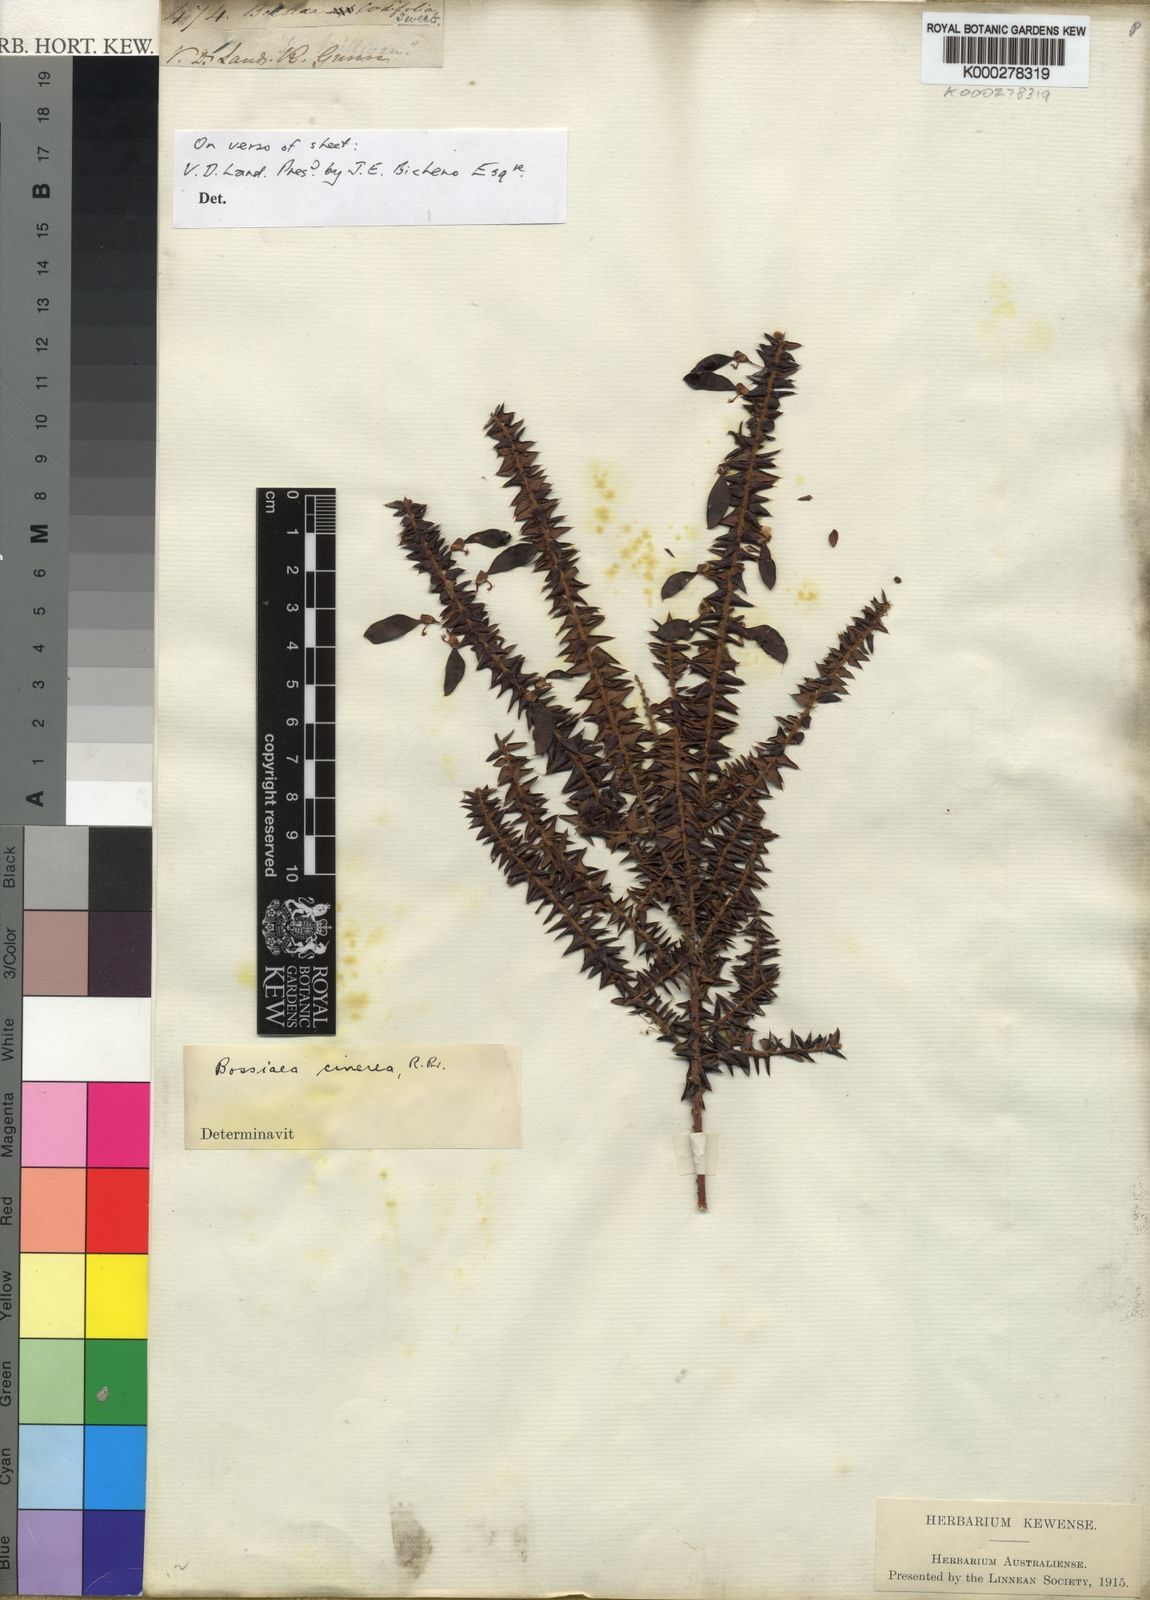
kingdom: Plantae
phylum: Tracheophyta
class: Magnoliopsida
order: Fabales
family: Fabaceae
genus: Bossiaea
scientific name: Bossiaea cinerea
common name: Showy bossiaea
